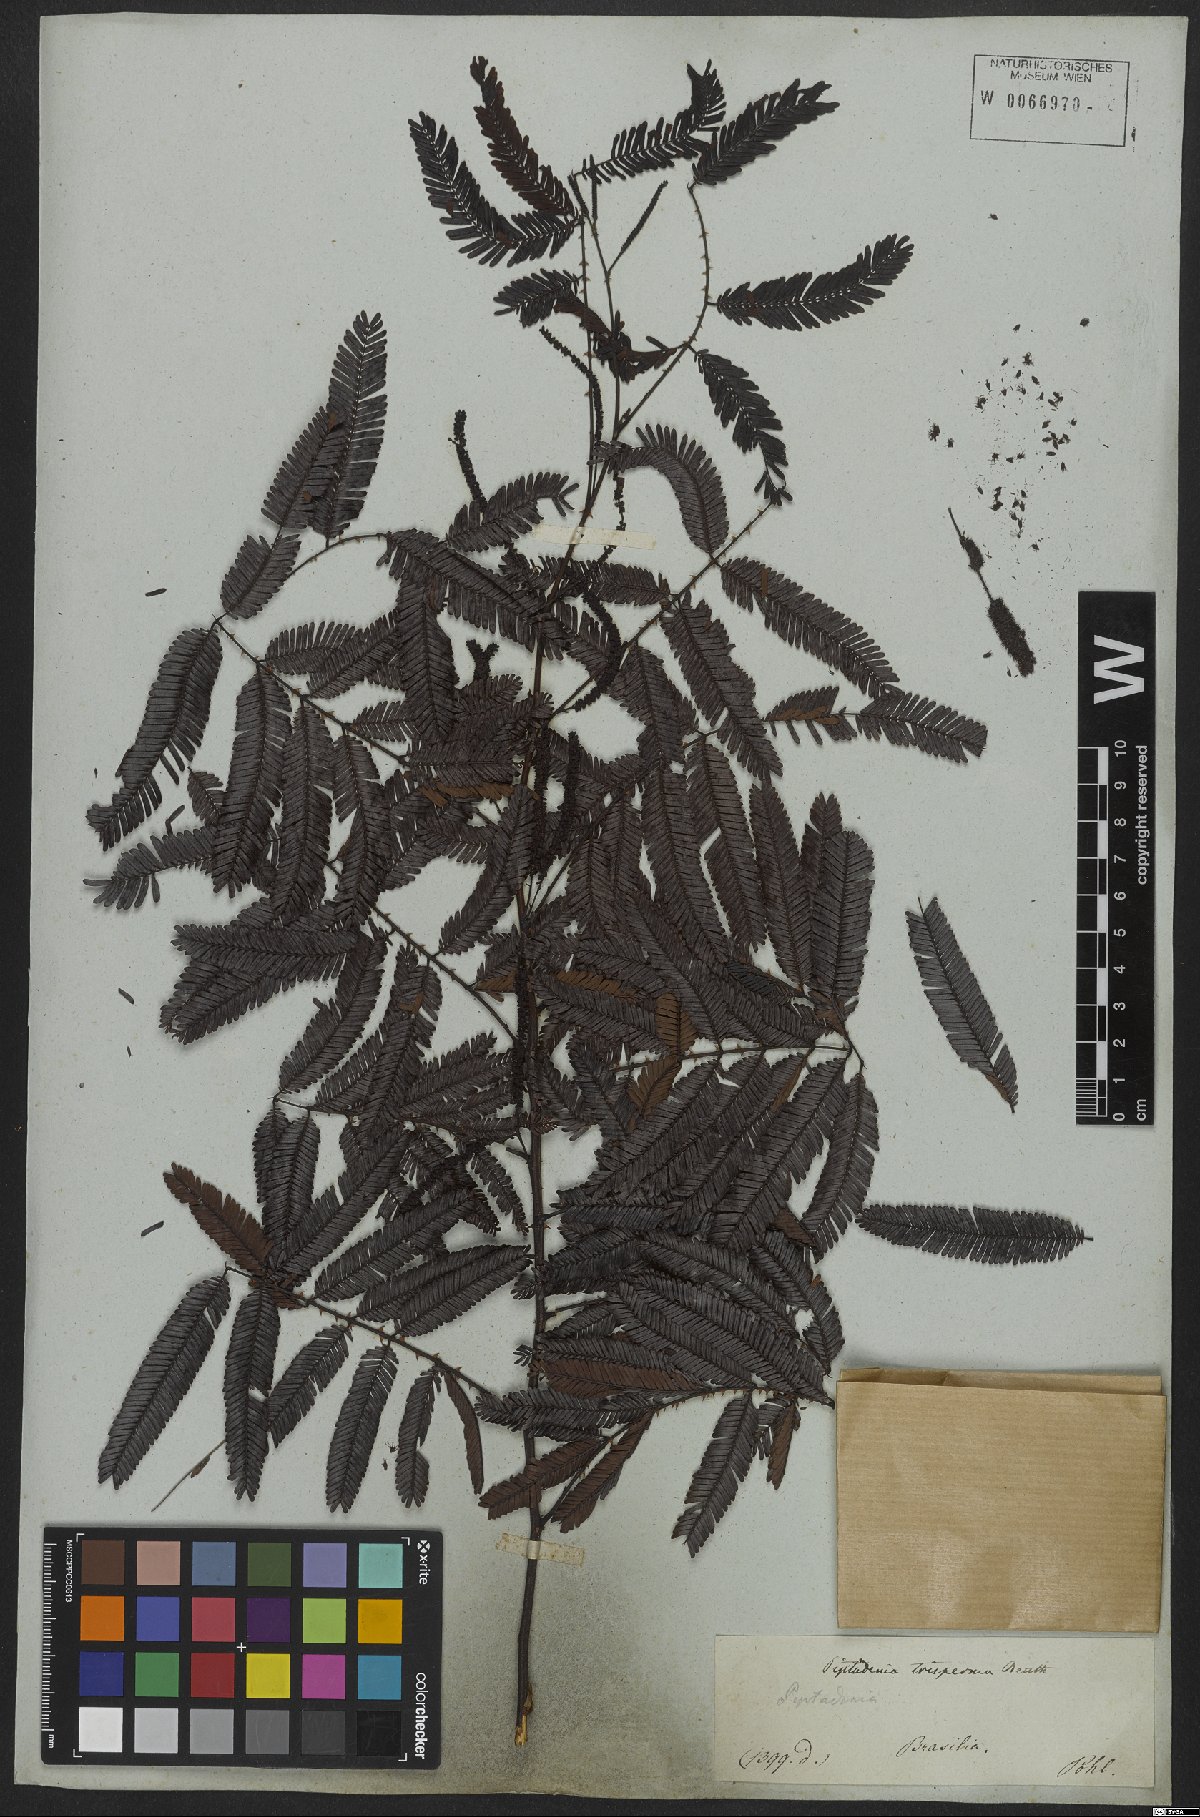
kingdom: Plantae
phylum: Tracheophyta
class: Magnoliopsida
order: Fabales
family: Fabaceae
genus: Piptadenia
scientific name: Piptadenia trisperma
